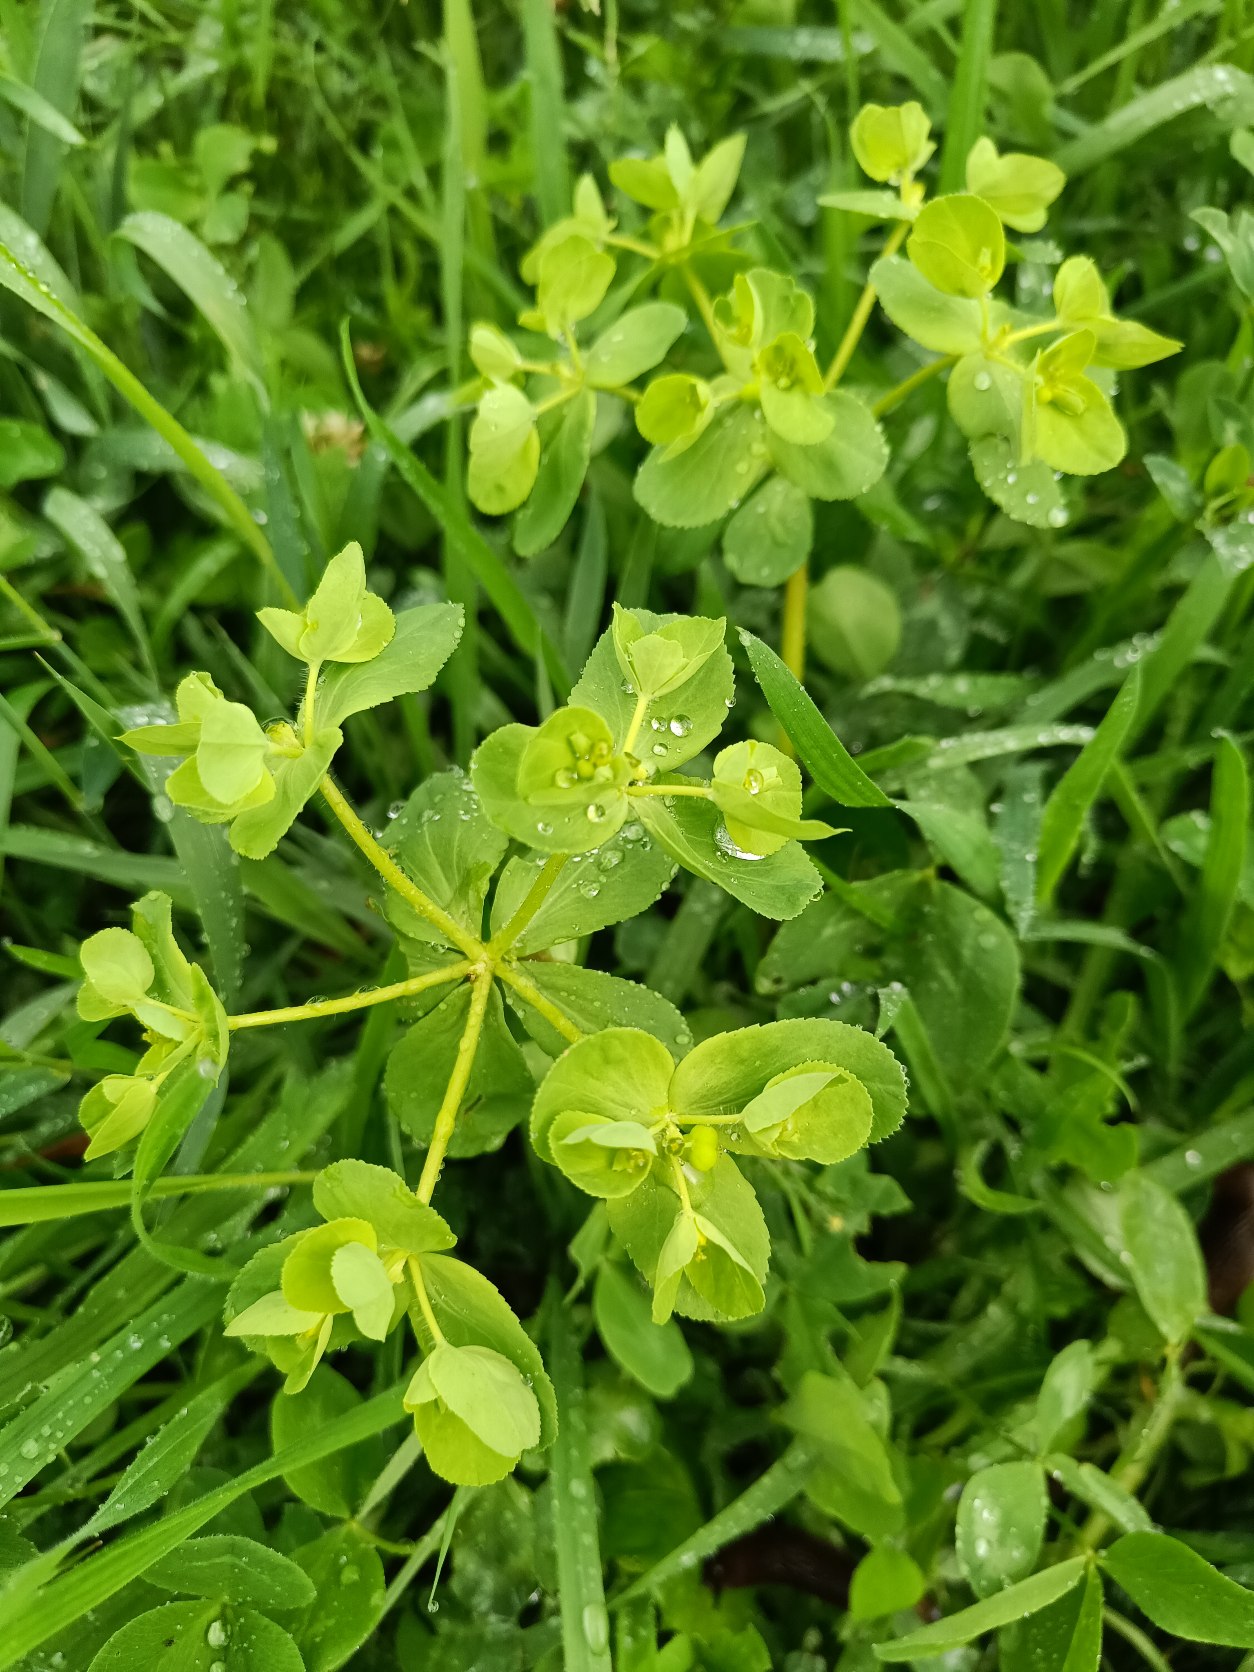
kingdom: Plantae
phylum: Tracheophyta
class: Magnoliopsida
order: Malpighiales
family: Euphorbiaceae
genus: Euphorbia
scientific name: Euphorbia helioscopia
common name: Skærm-vortemælk
